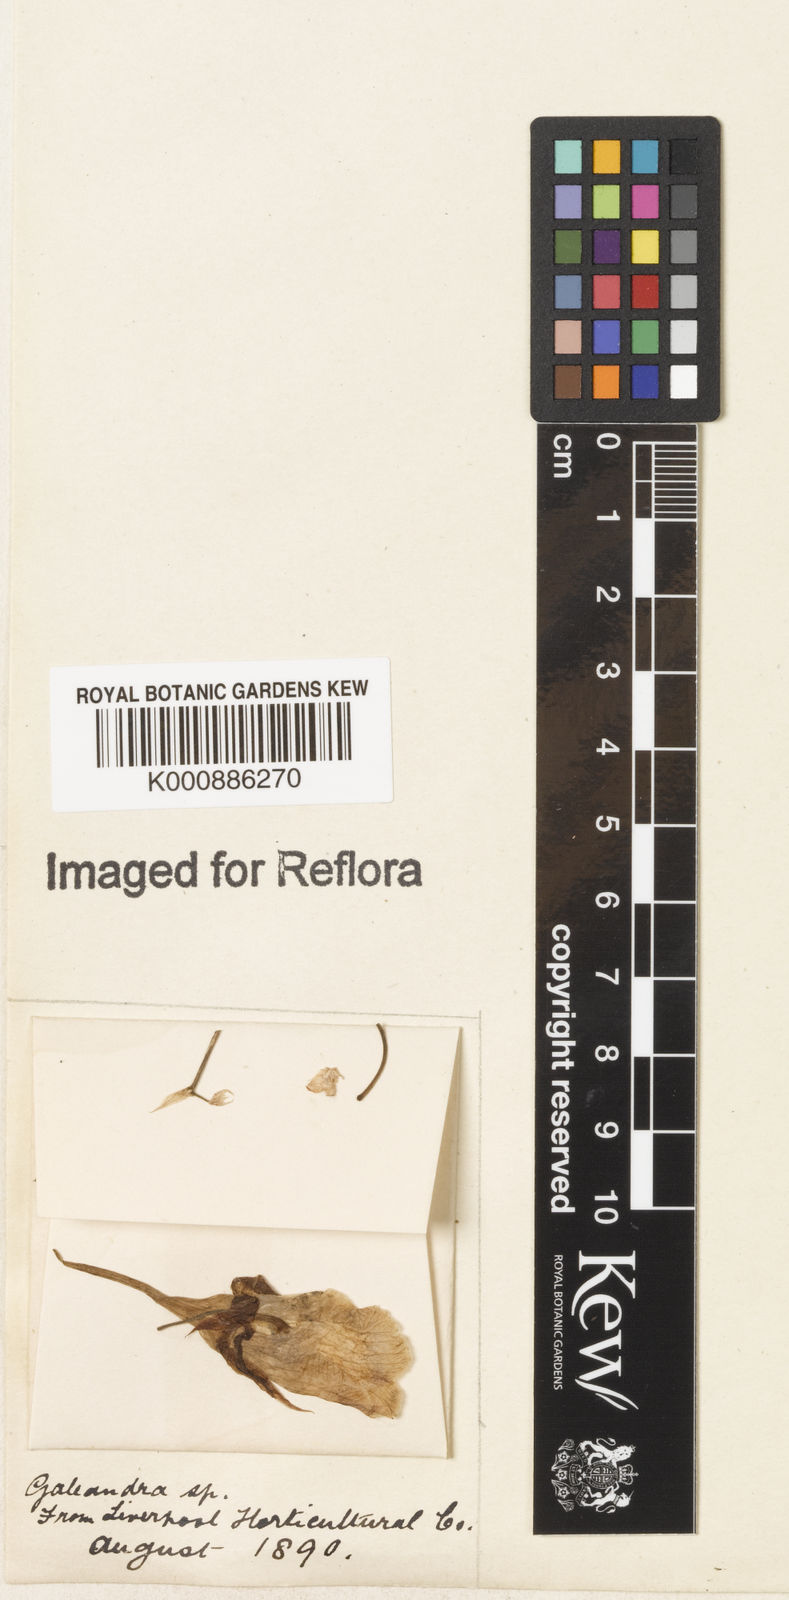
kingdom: Plantae
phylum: Tracheophyta
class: Liliopsida
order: Asparagales
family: Orchidaceae
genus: Galeandra
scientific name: Galeandra baueri
